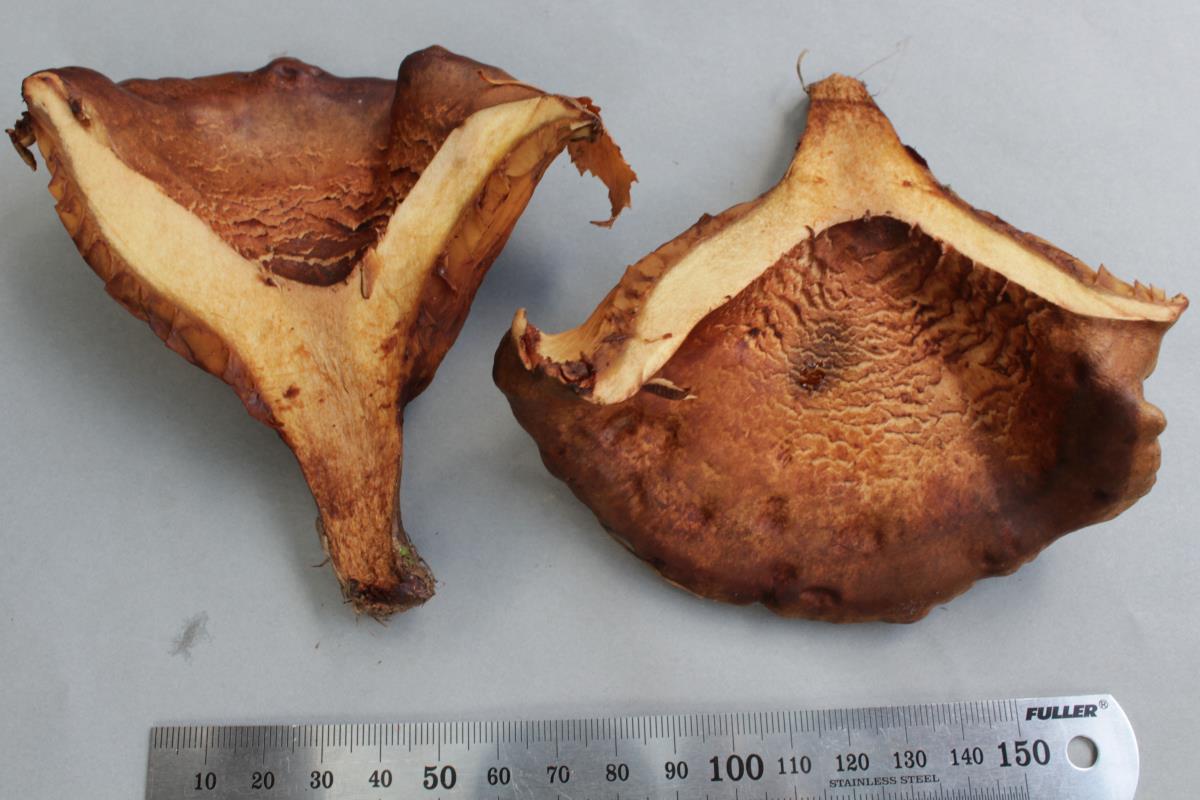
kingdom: Fungi
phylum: Basidiomycota
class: Agaricomycetes
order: Boletales
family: Paxillaceae
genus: Paxillus
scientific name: Paxillus ammoniavirescens
